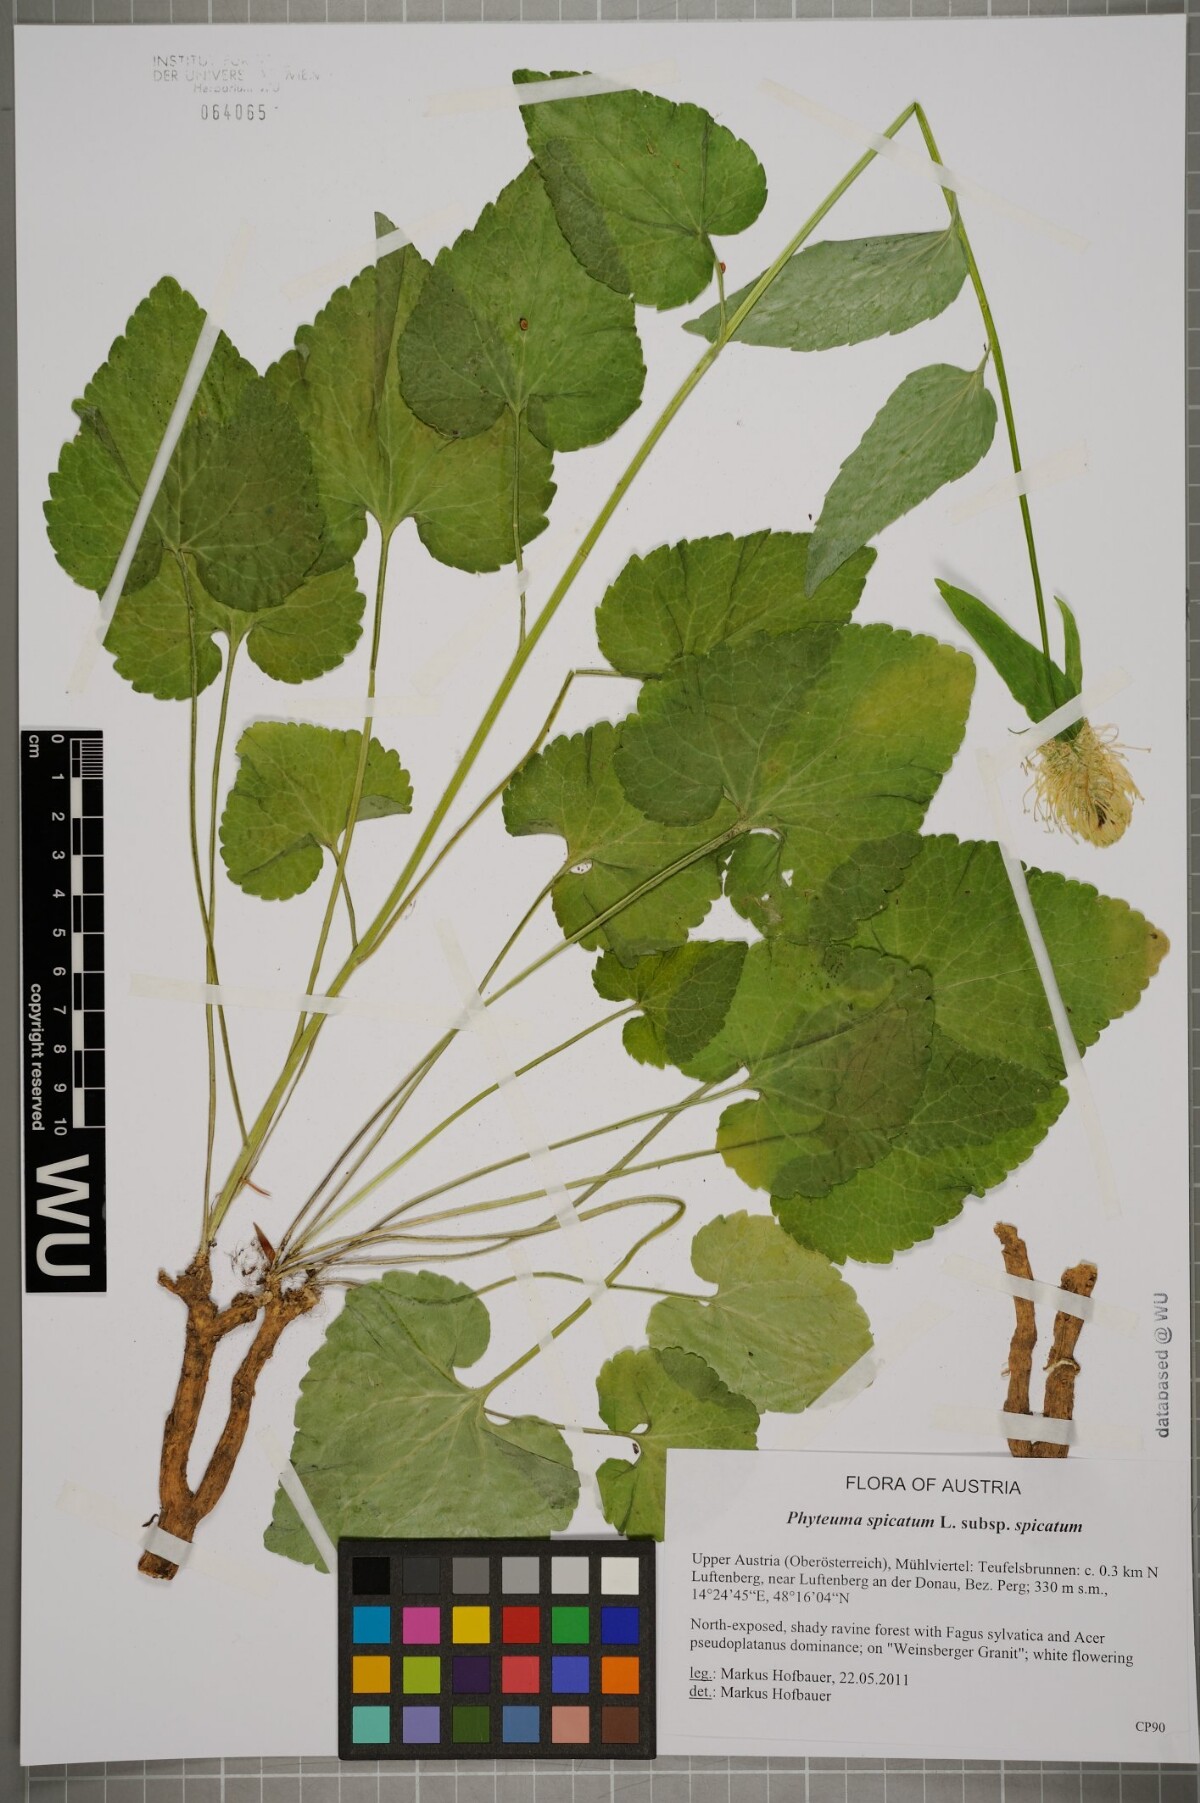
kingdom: Plantae
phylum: Tracheophyta
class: Magnoliopsida
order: Asterales
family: Campanulaceae
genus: Phyteuma
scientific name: Phyteuma spicatum
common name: Spiked rampion
